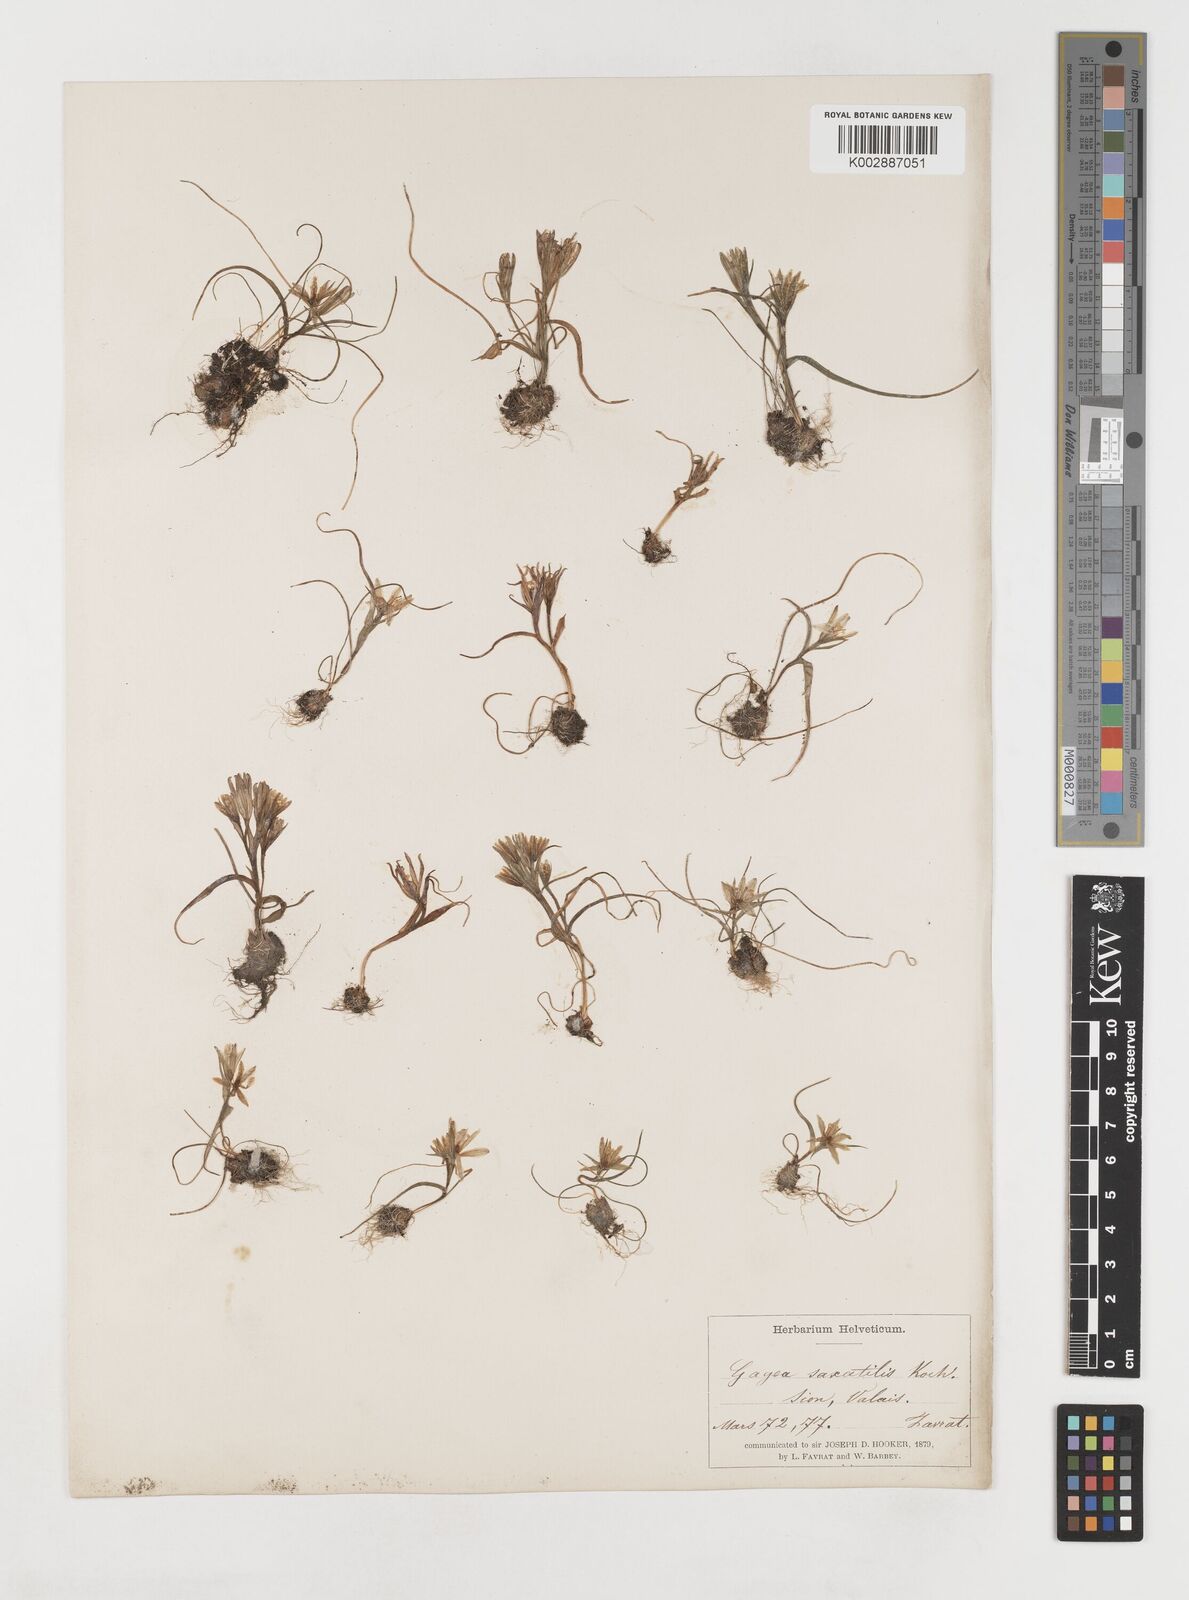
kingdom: Plantae
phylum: Tracheophyta
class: Liliopsida
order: Liliales
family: Liliaceae
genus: Gagea
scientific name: Gagea bohemica
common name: Early star-of-bethlehem
